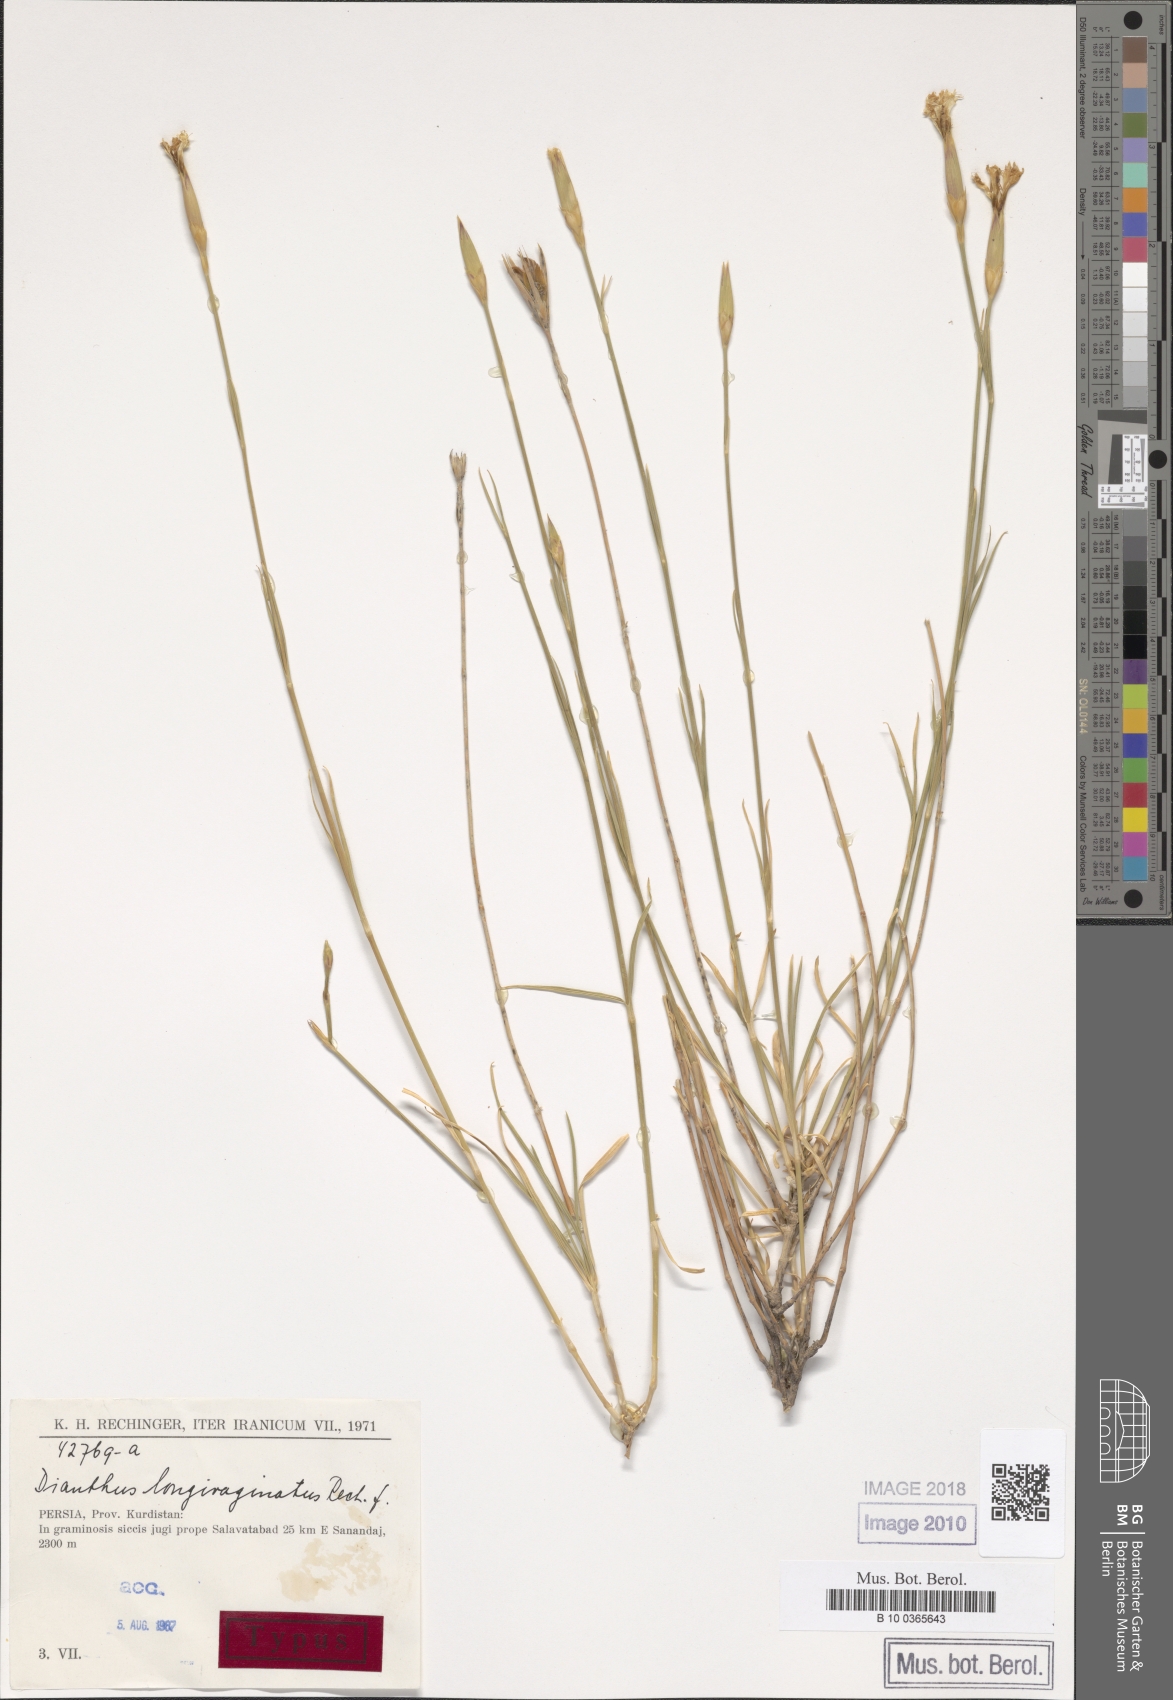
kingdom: Plantae
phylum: Tracheophyta
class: Magnoliopsida
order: Caryophyllales
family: Caryophyllaceae
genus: Dianthus
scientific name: Dianthus longivaginatus
